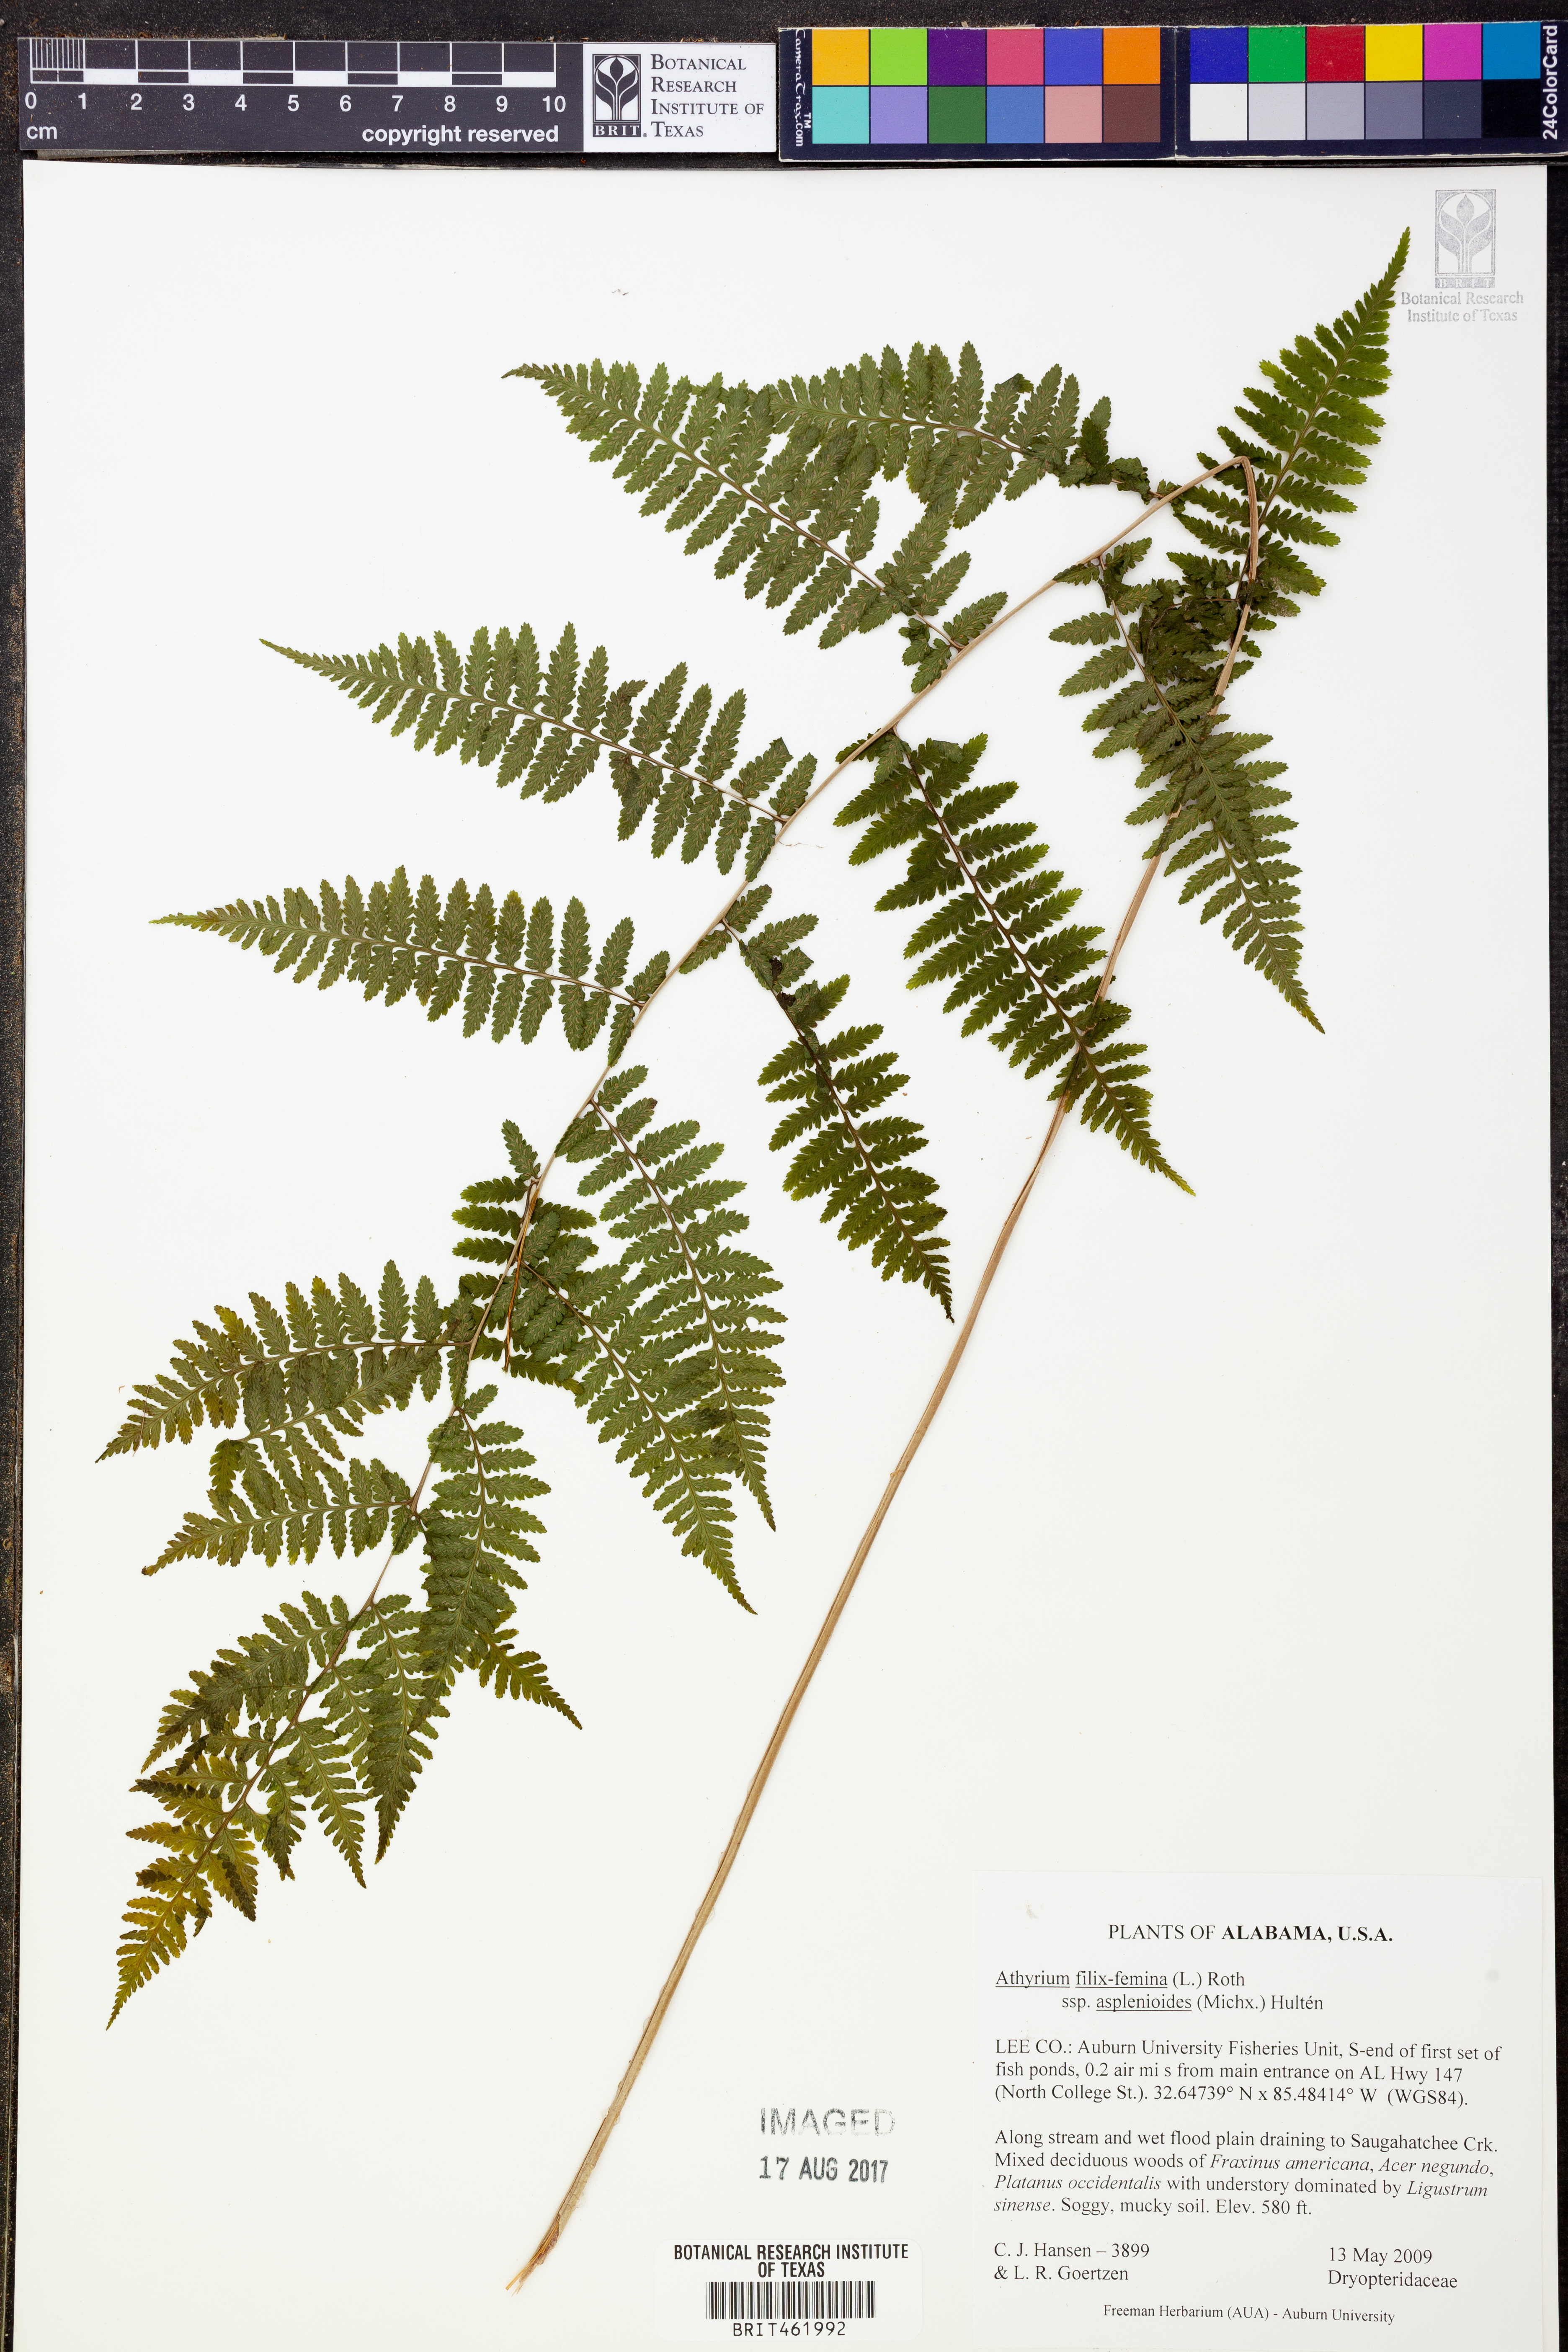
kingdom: Plantae
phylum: Tracheophyta
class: Polypodiopsida
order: Polypodiales
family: Athyriaceae
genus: Athyrium
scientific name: Athyrium asplenioides
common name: Southern lady fern
